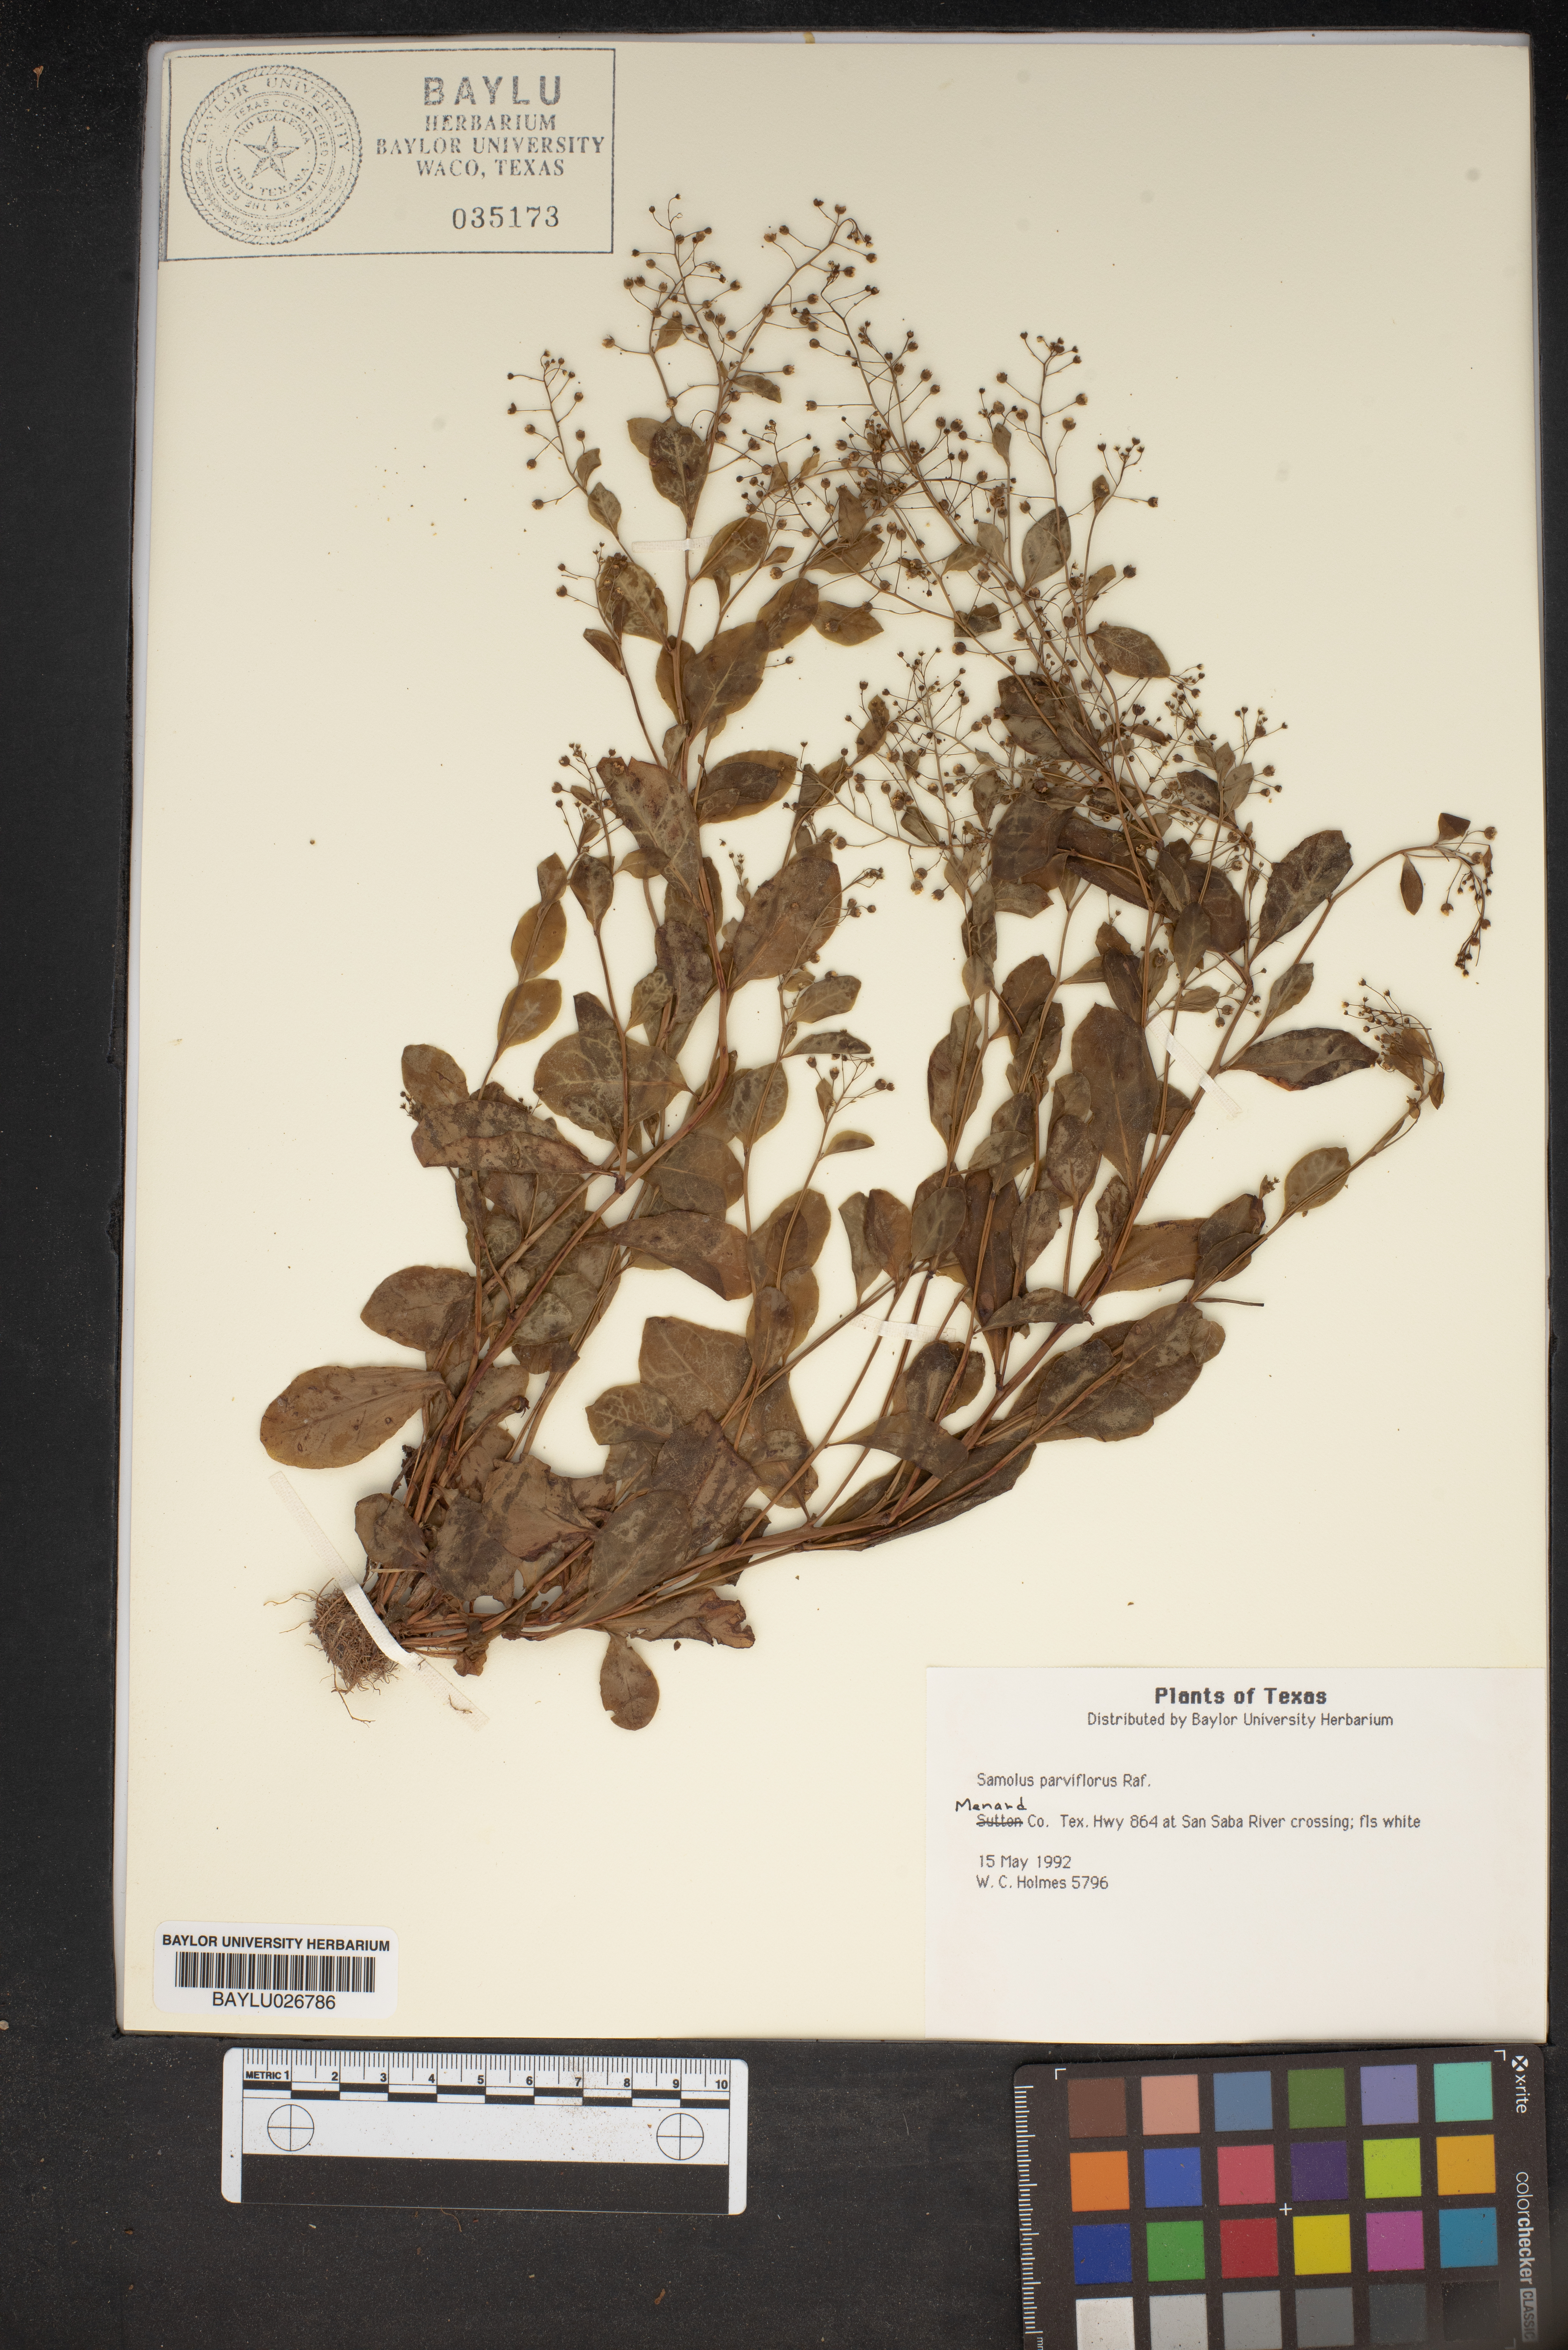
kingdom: Plantae
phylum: Tracheophyta
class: Magnoliopsida
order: Ericales
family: Primulaceae
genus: Samolus
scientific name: Samolus parviflorus
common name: False water pimpernel
